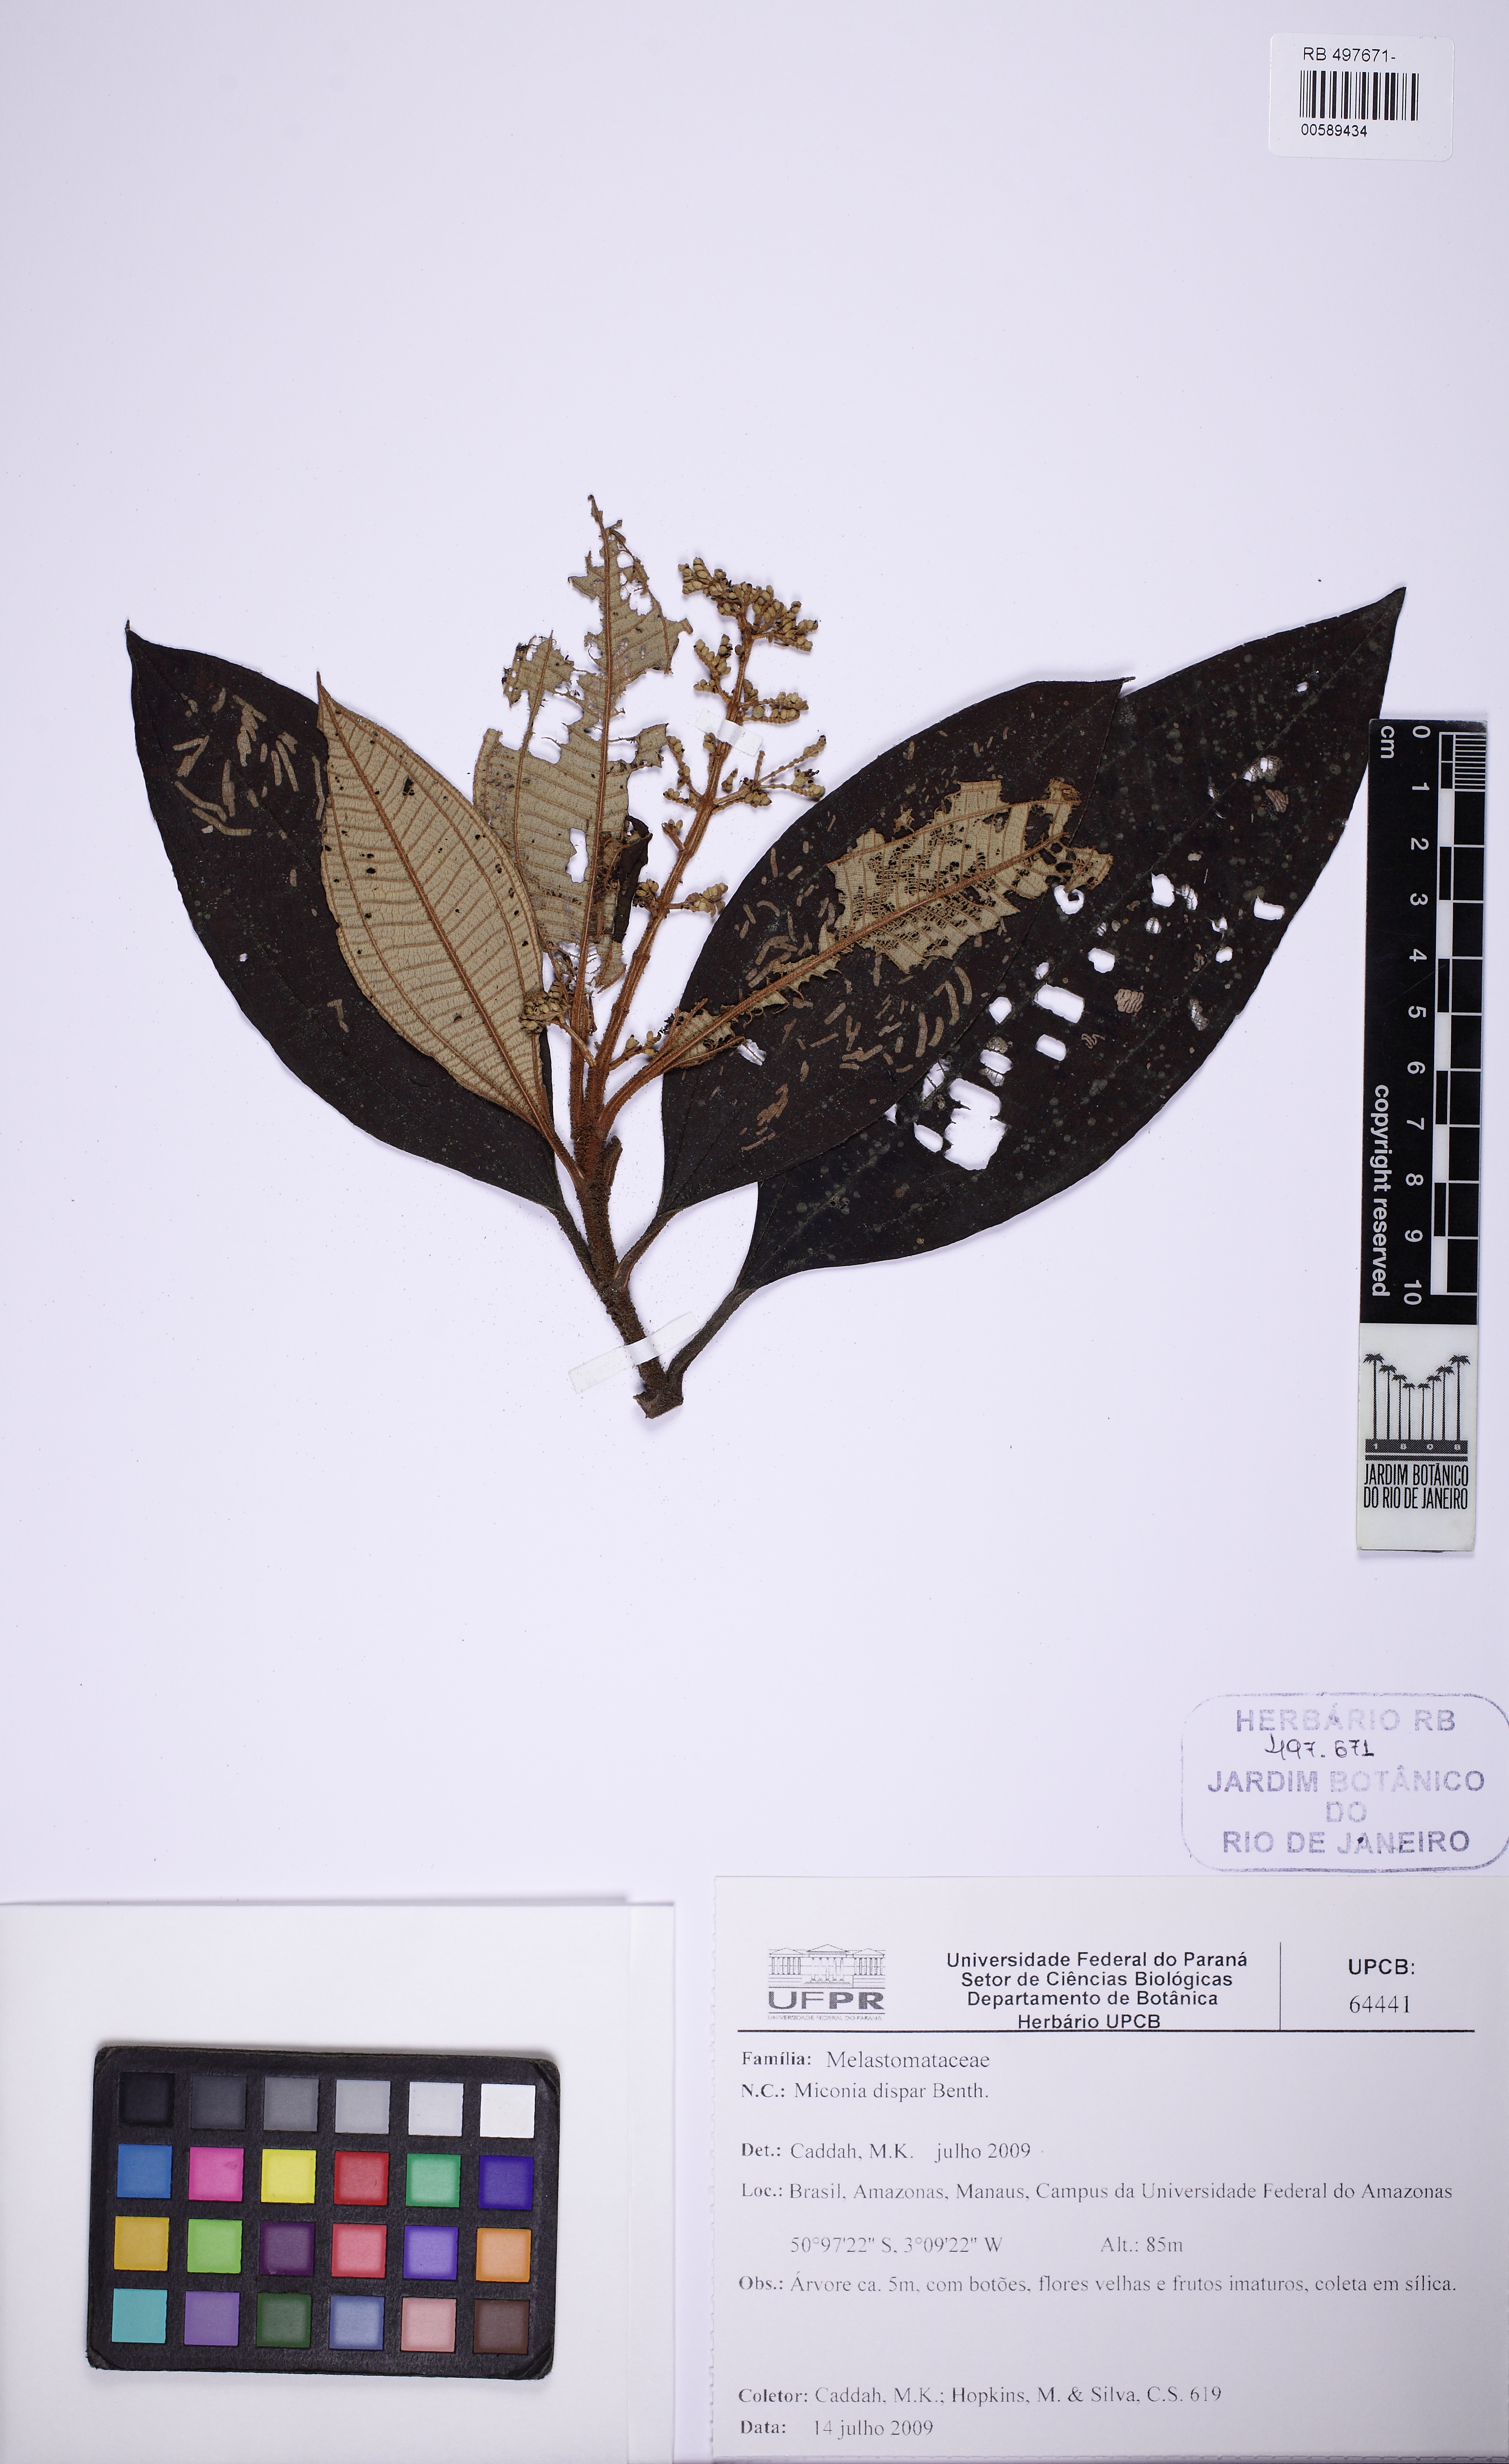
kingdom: Plantae
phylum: Tracheophyta
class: Magnoliopsida
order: Myrtales
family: Melastomataceae
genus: Miconia
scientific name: Miconia dispar
